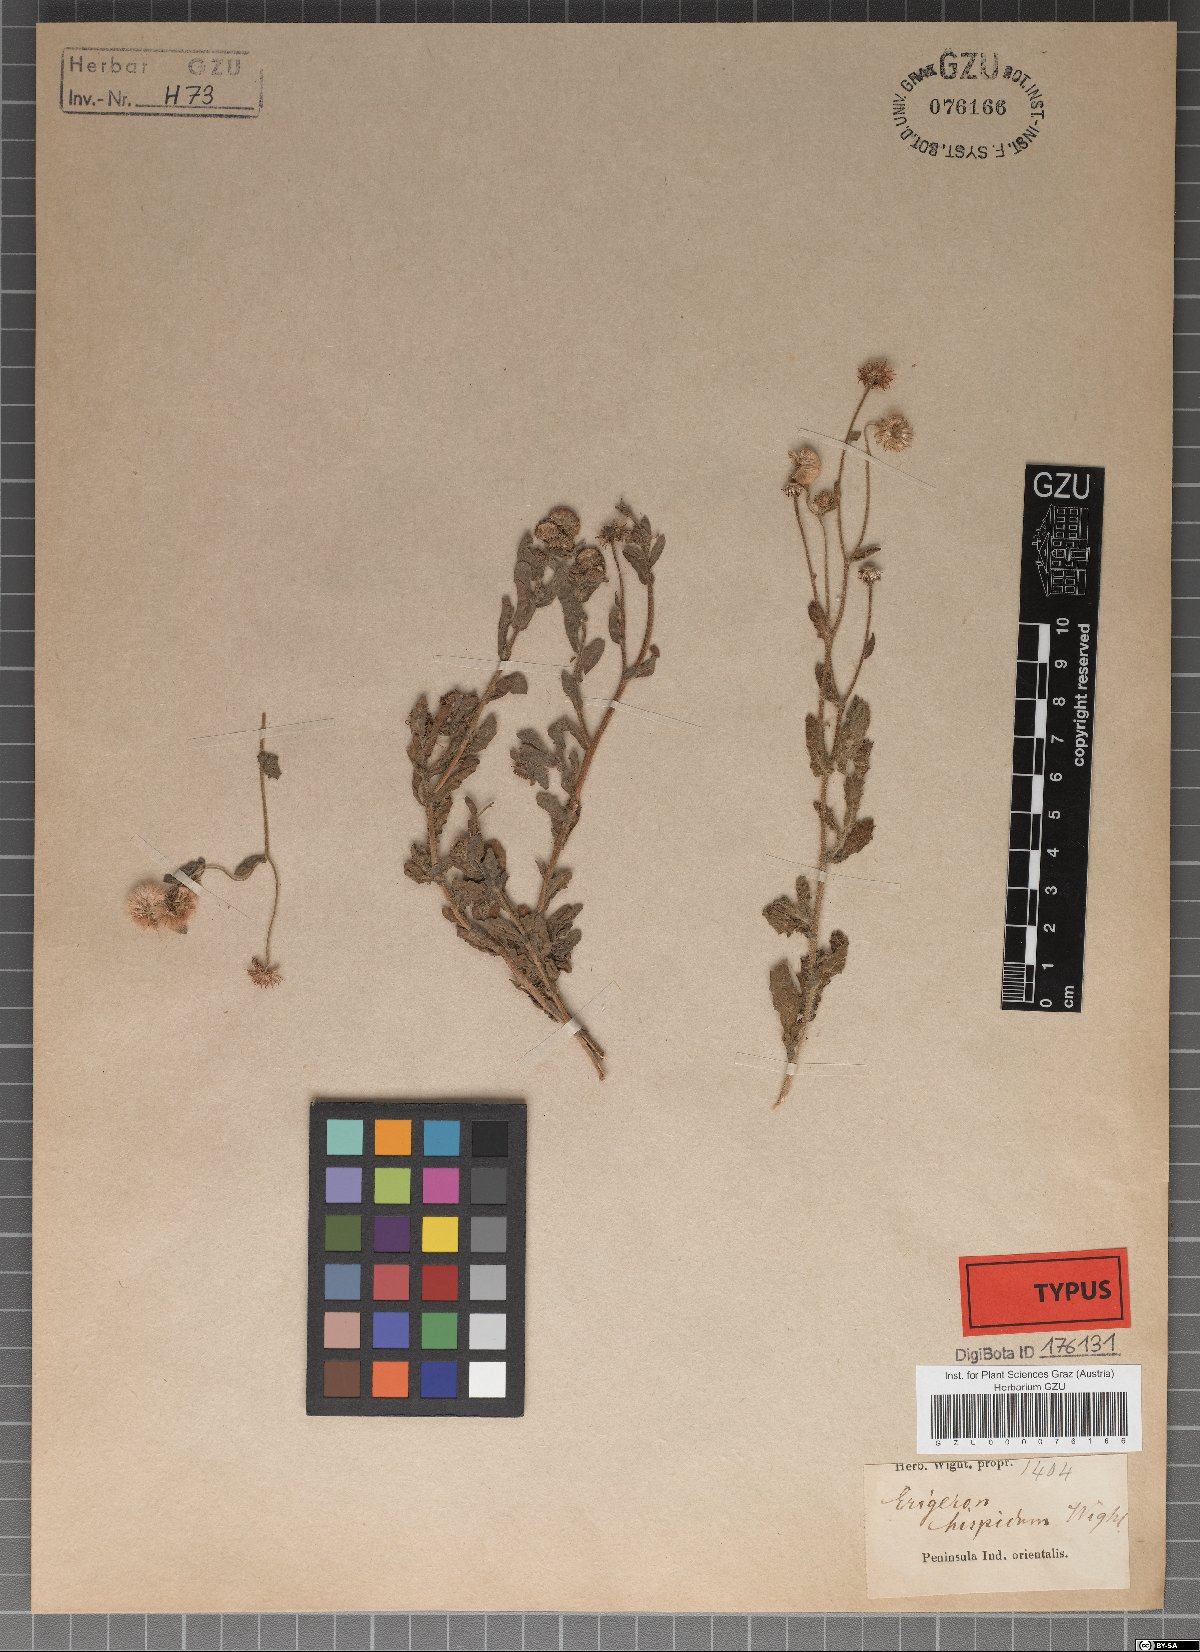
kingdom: Plantae
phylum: Tracheophyta
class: Magnoliopsida
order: Asterales
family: Asteraceae
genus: Nidorella
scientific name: Nidorella aegyptiaca
